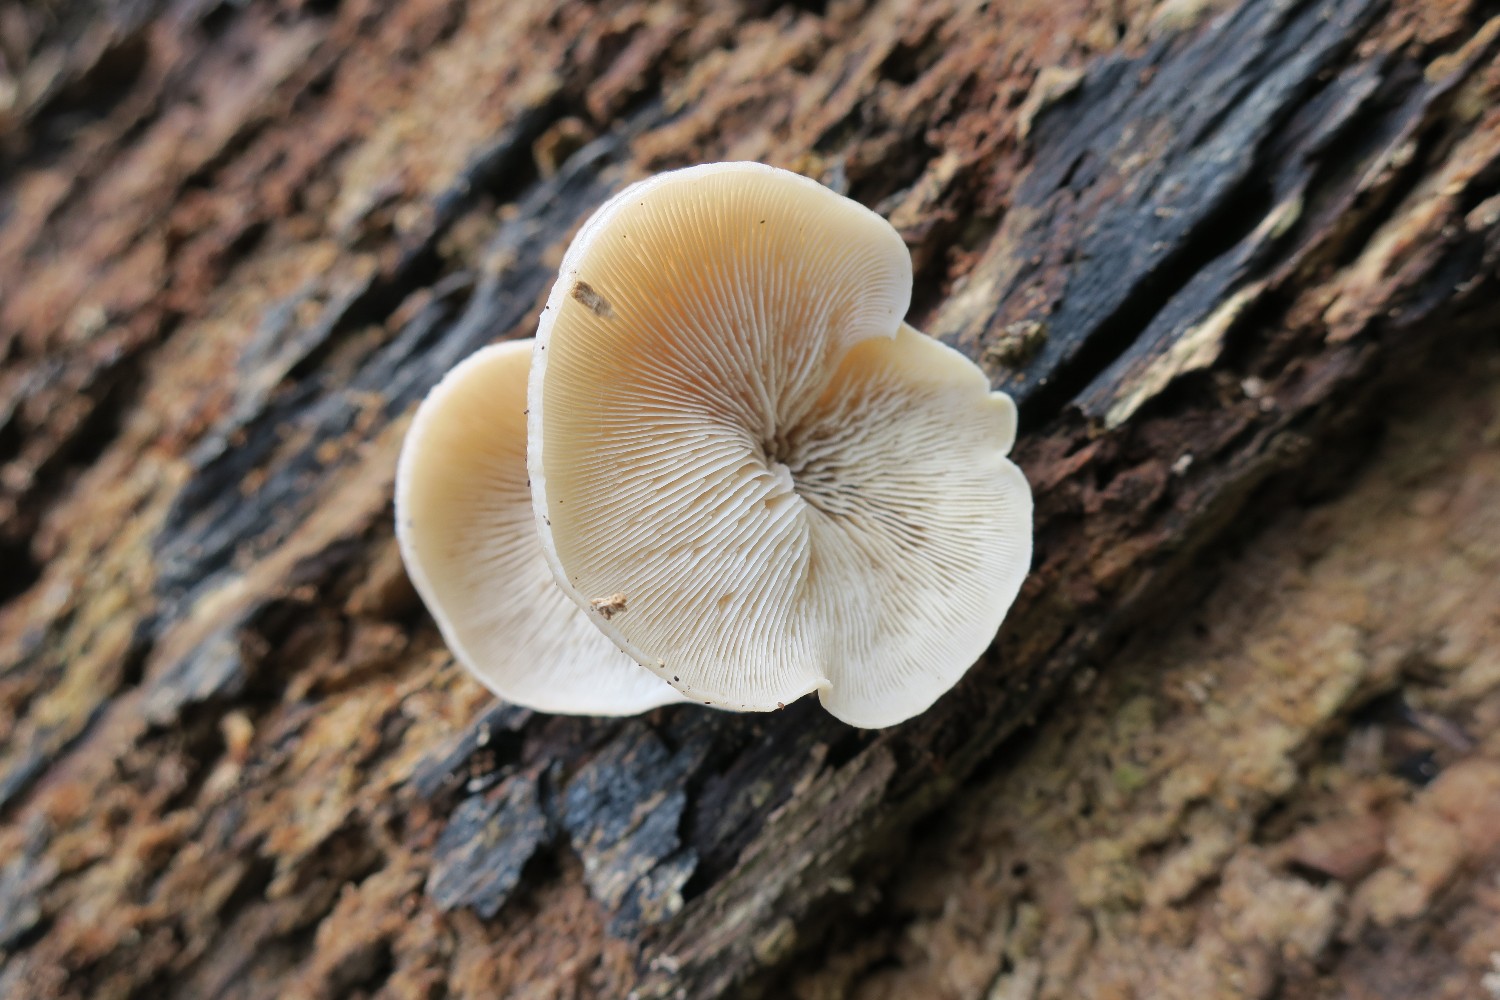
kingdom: Fungi
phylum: Basidiomycota
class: Agaricomycetes
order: Russulales
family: Auriscalpiaceae
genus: Lentinellus
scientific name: Lentinellus ursinus
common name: børstehåret savbladhat
